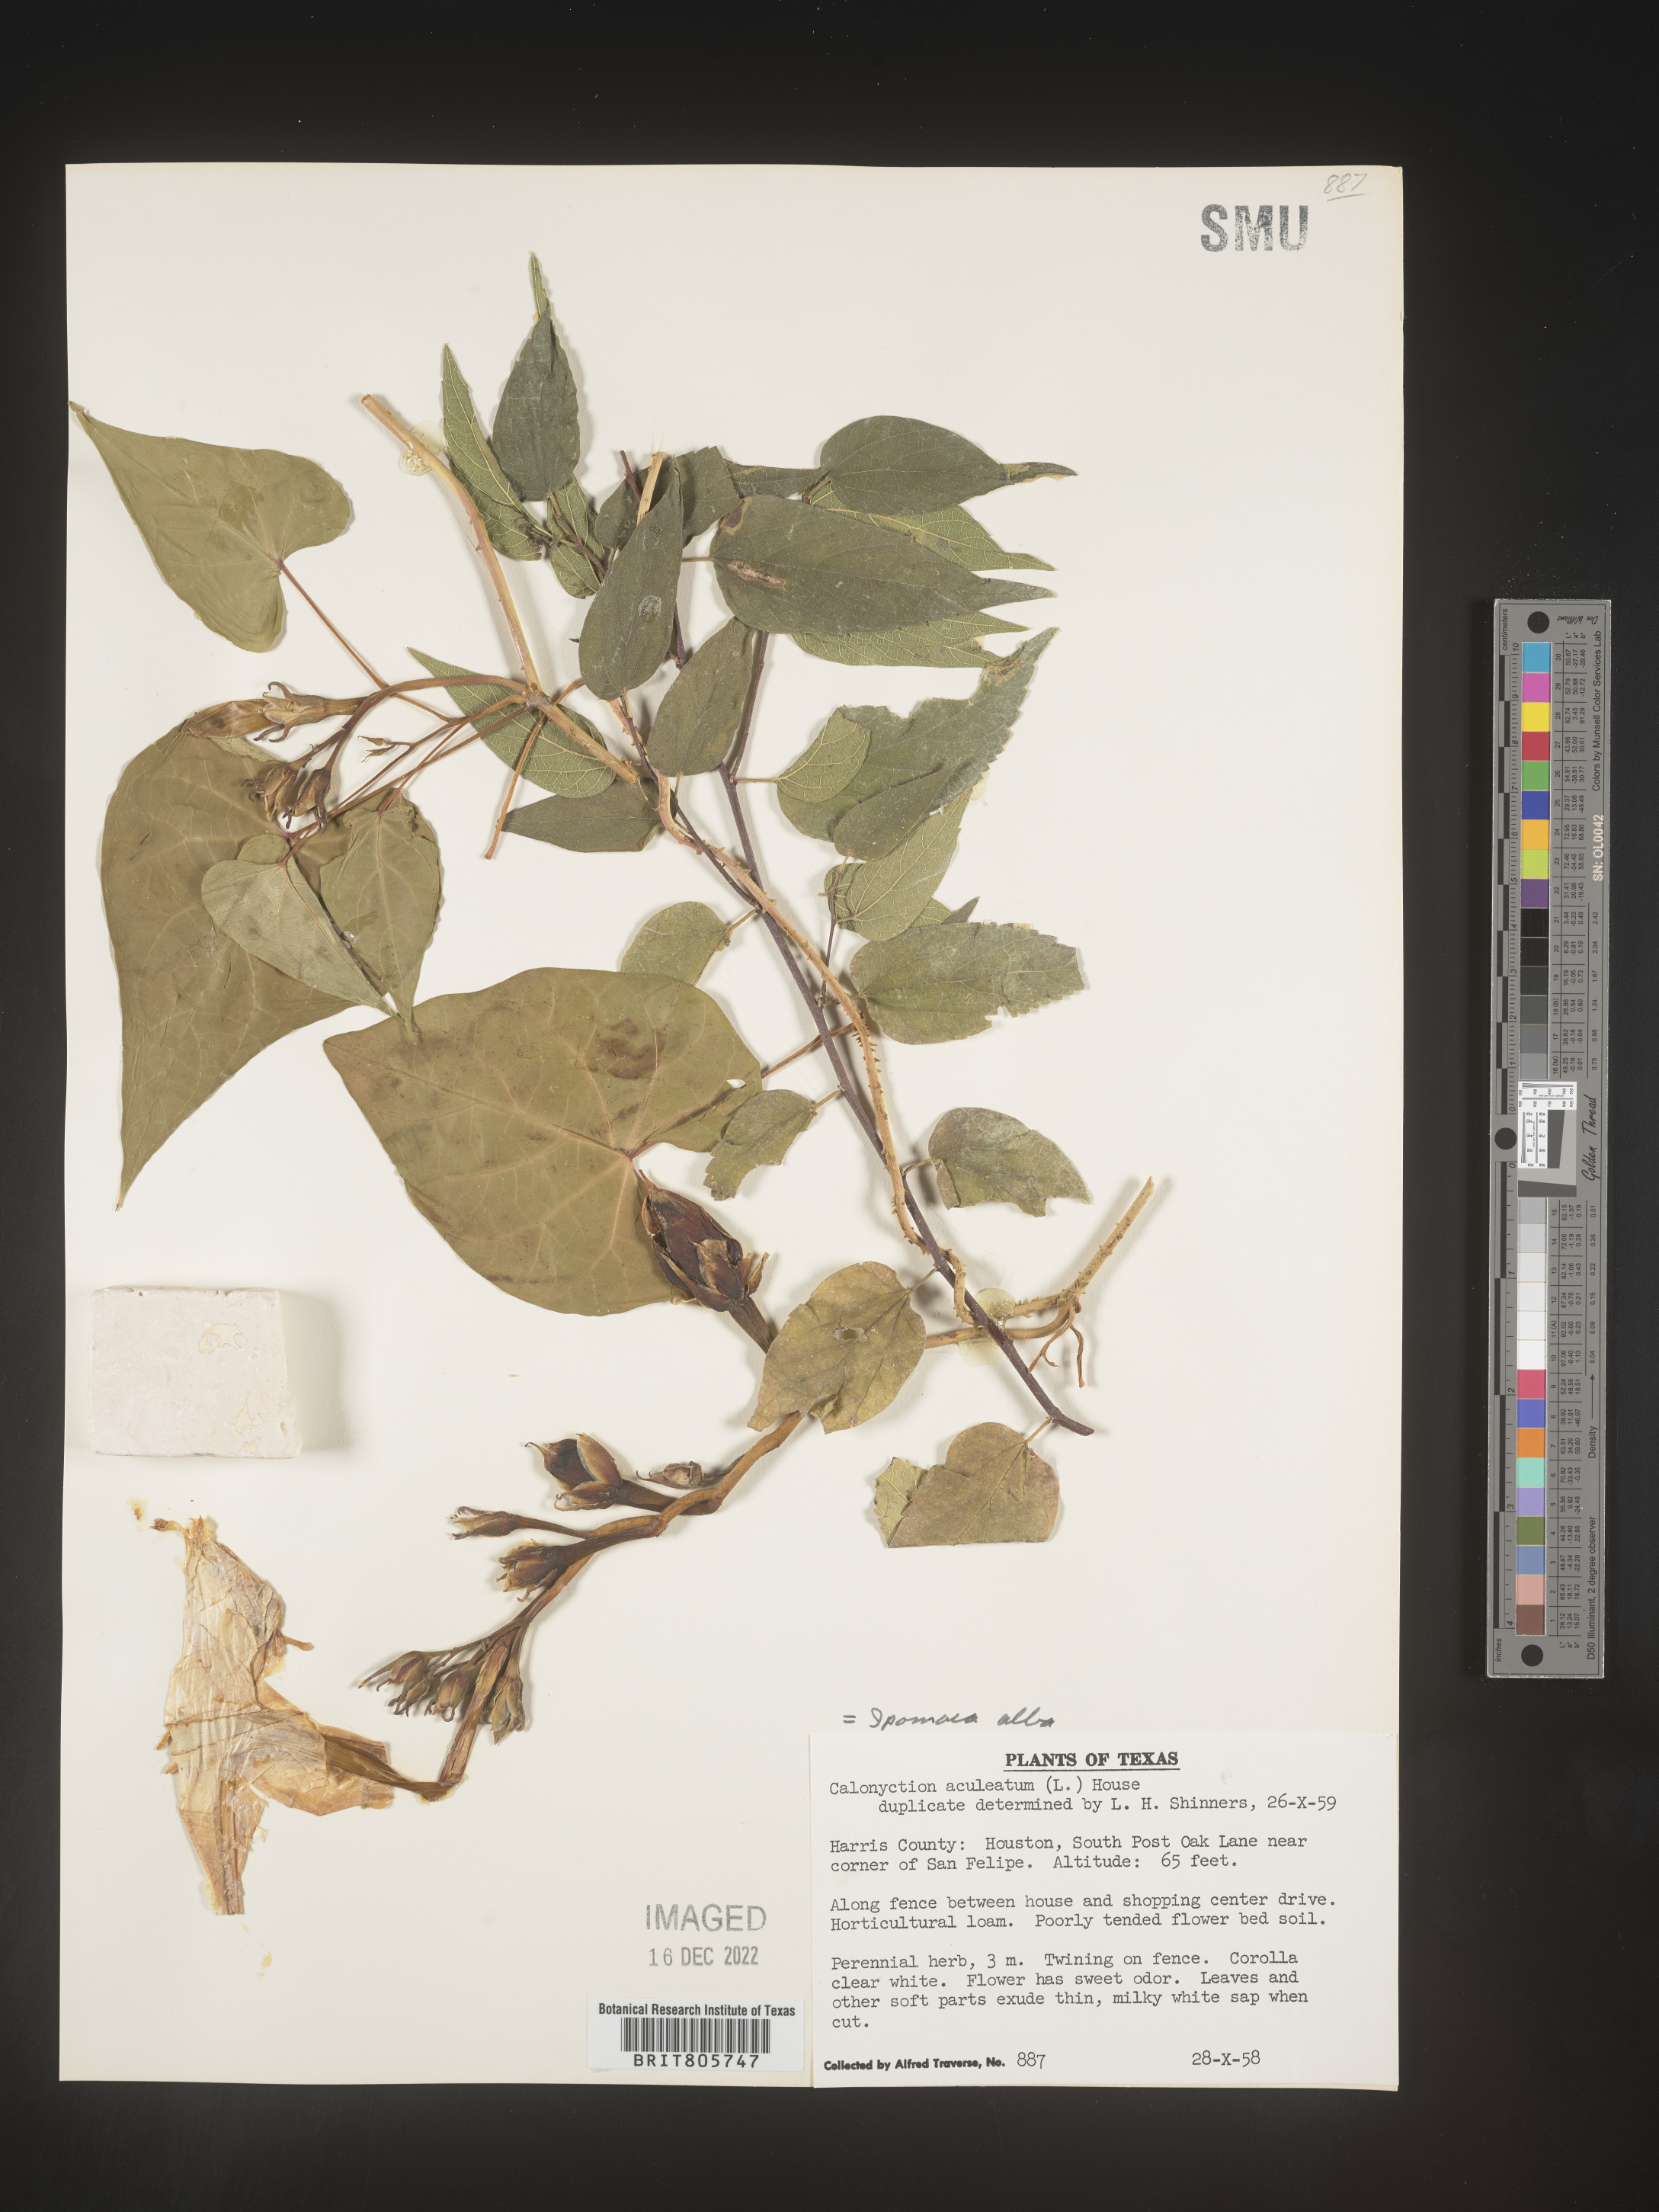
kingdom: Plantae
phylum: Tracheophyta
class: Magnoliopsida
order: Solanales
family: Convolvulaceae
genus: Ipomoea
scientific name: Ipomoea alba
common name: Moonflower
